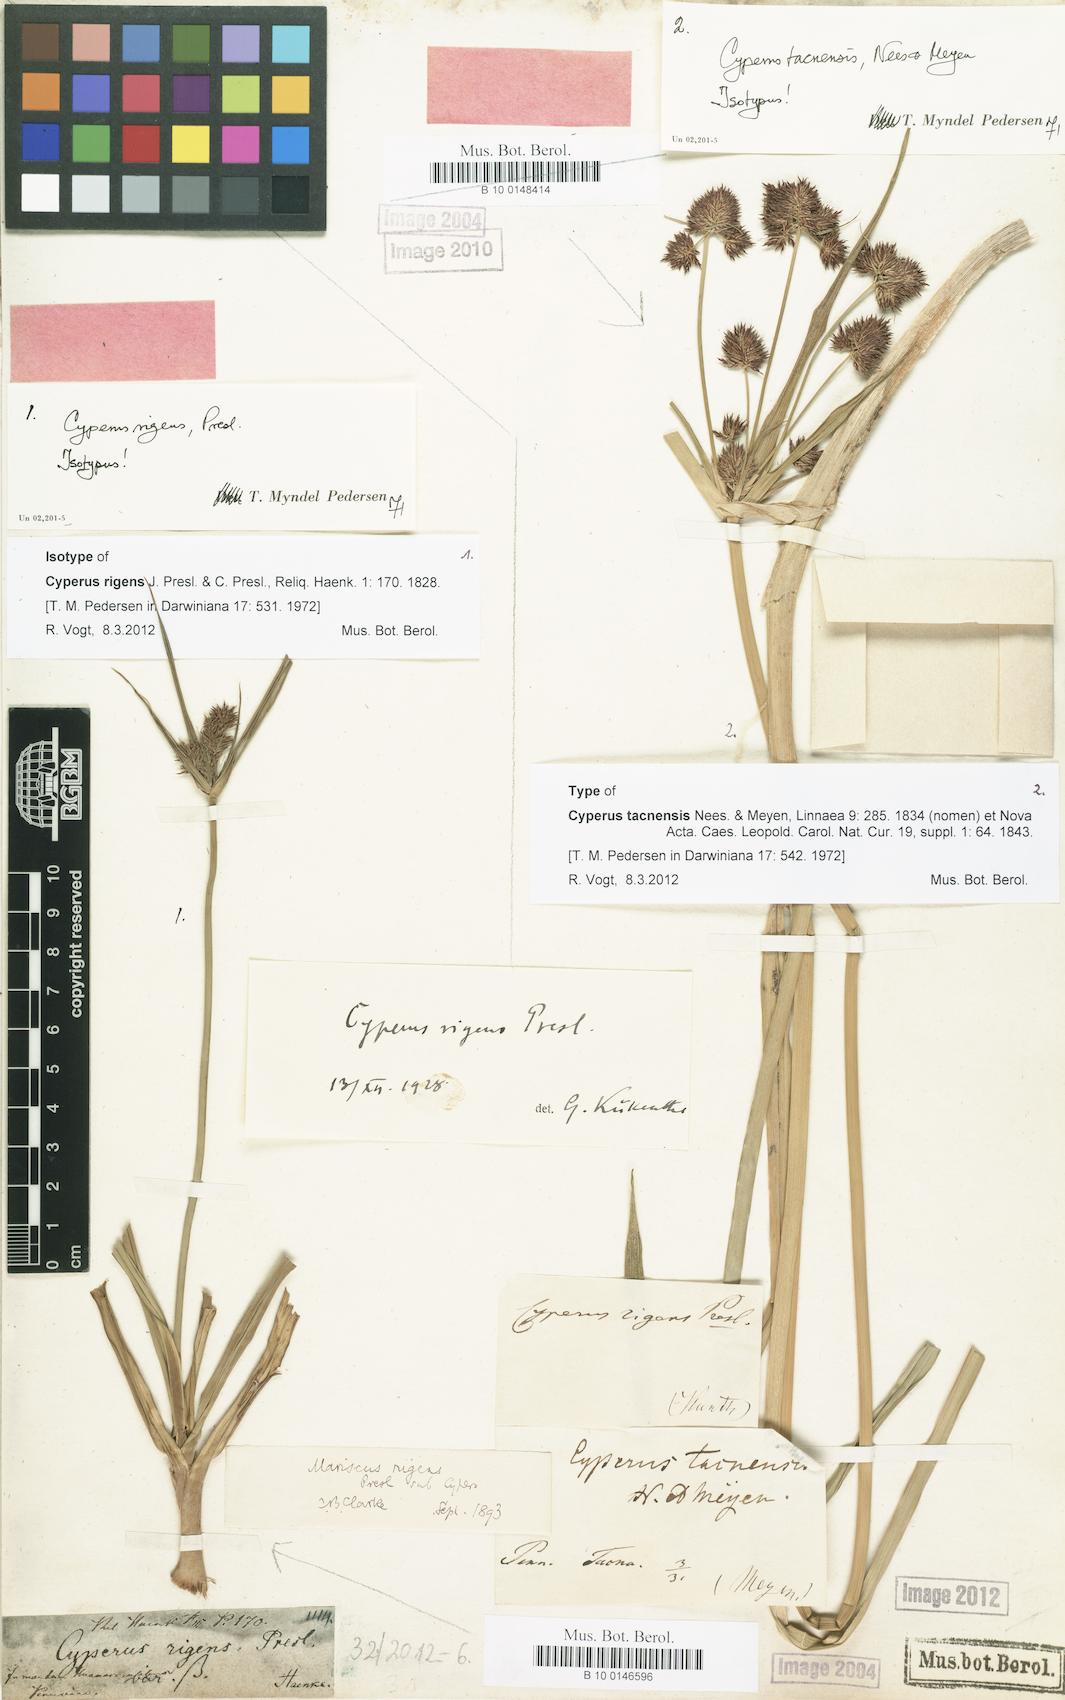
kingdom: Plantae
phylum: Tracheophyta
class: Liliopsida
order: Poales
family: Cyperaceae
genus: Cyperus
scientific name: Cyperus rigens
